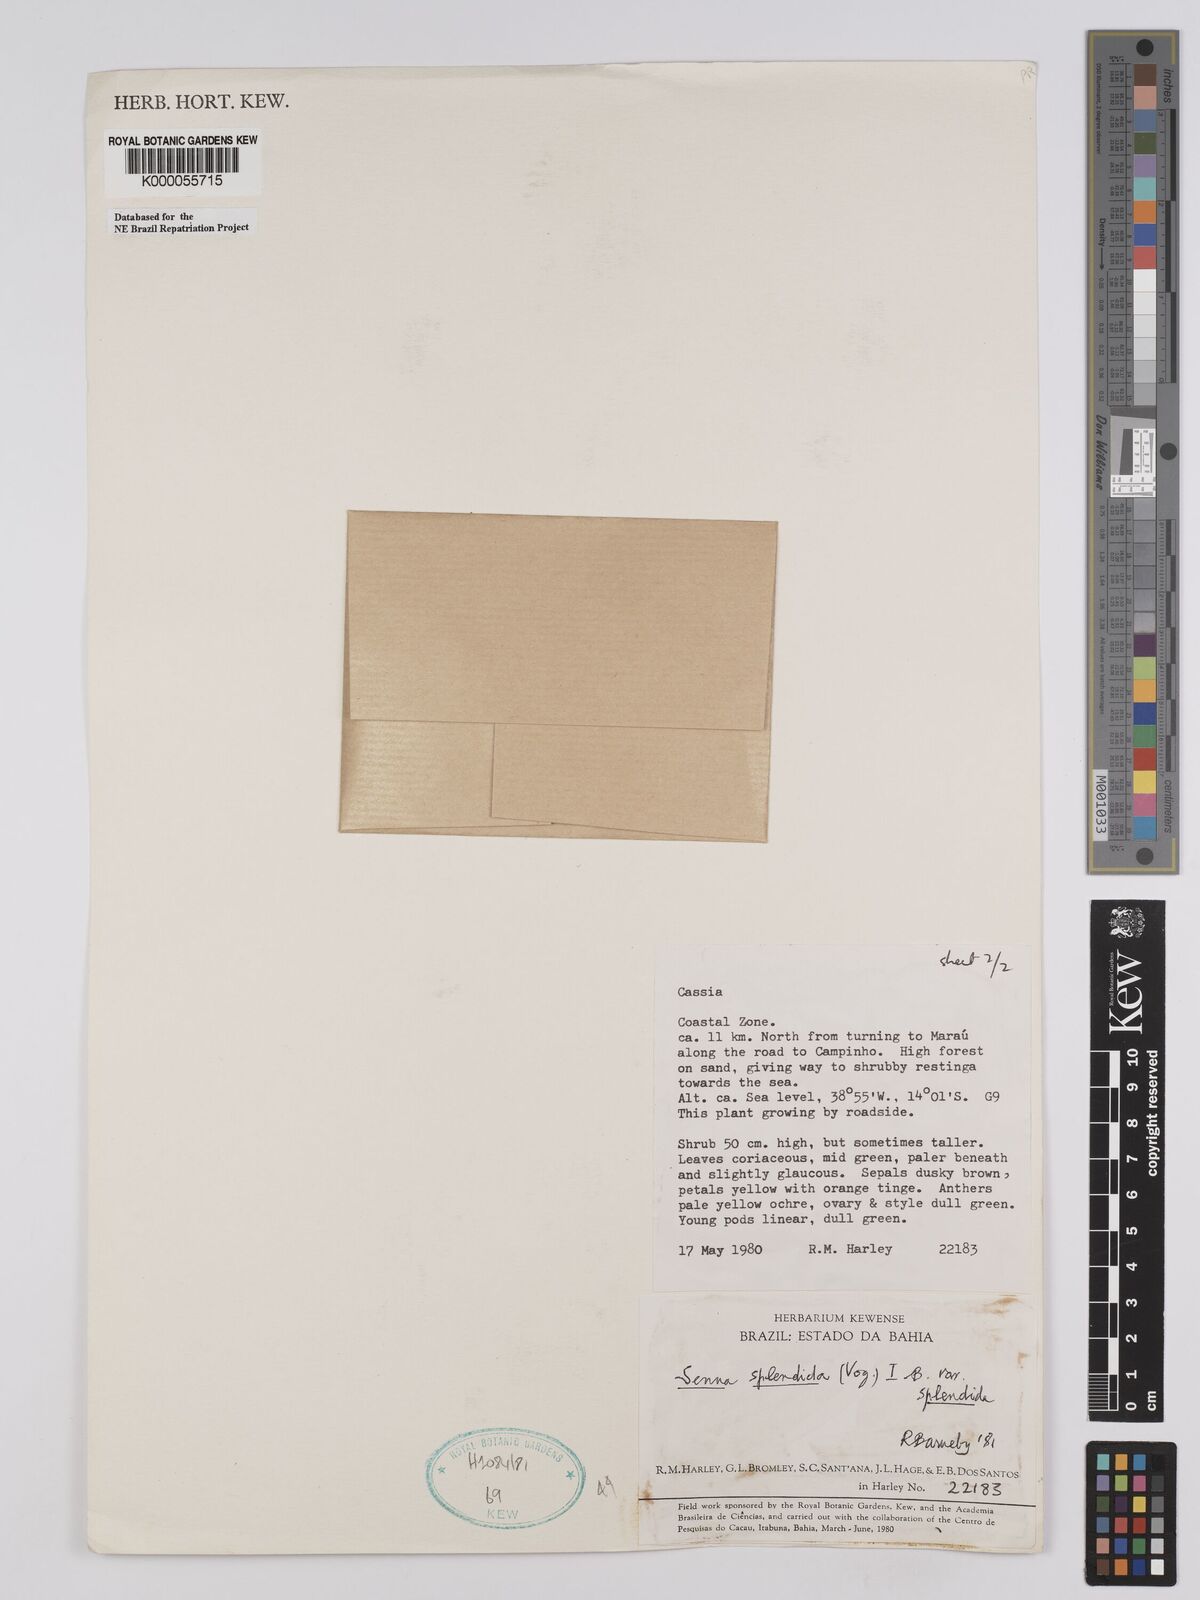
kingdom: Plantae
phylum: Tracheophyta
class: Magnoliopsida
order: Fabales
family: Fabaceae
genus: Senna
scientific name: Senna splendida
